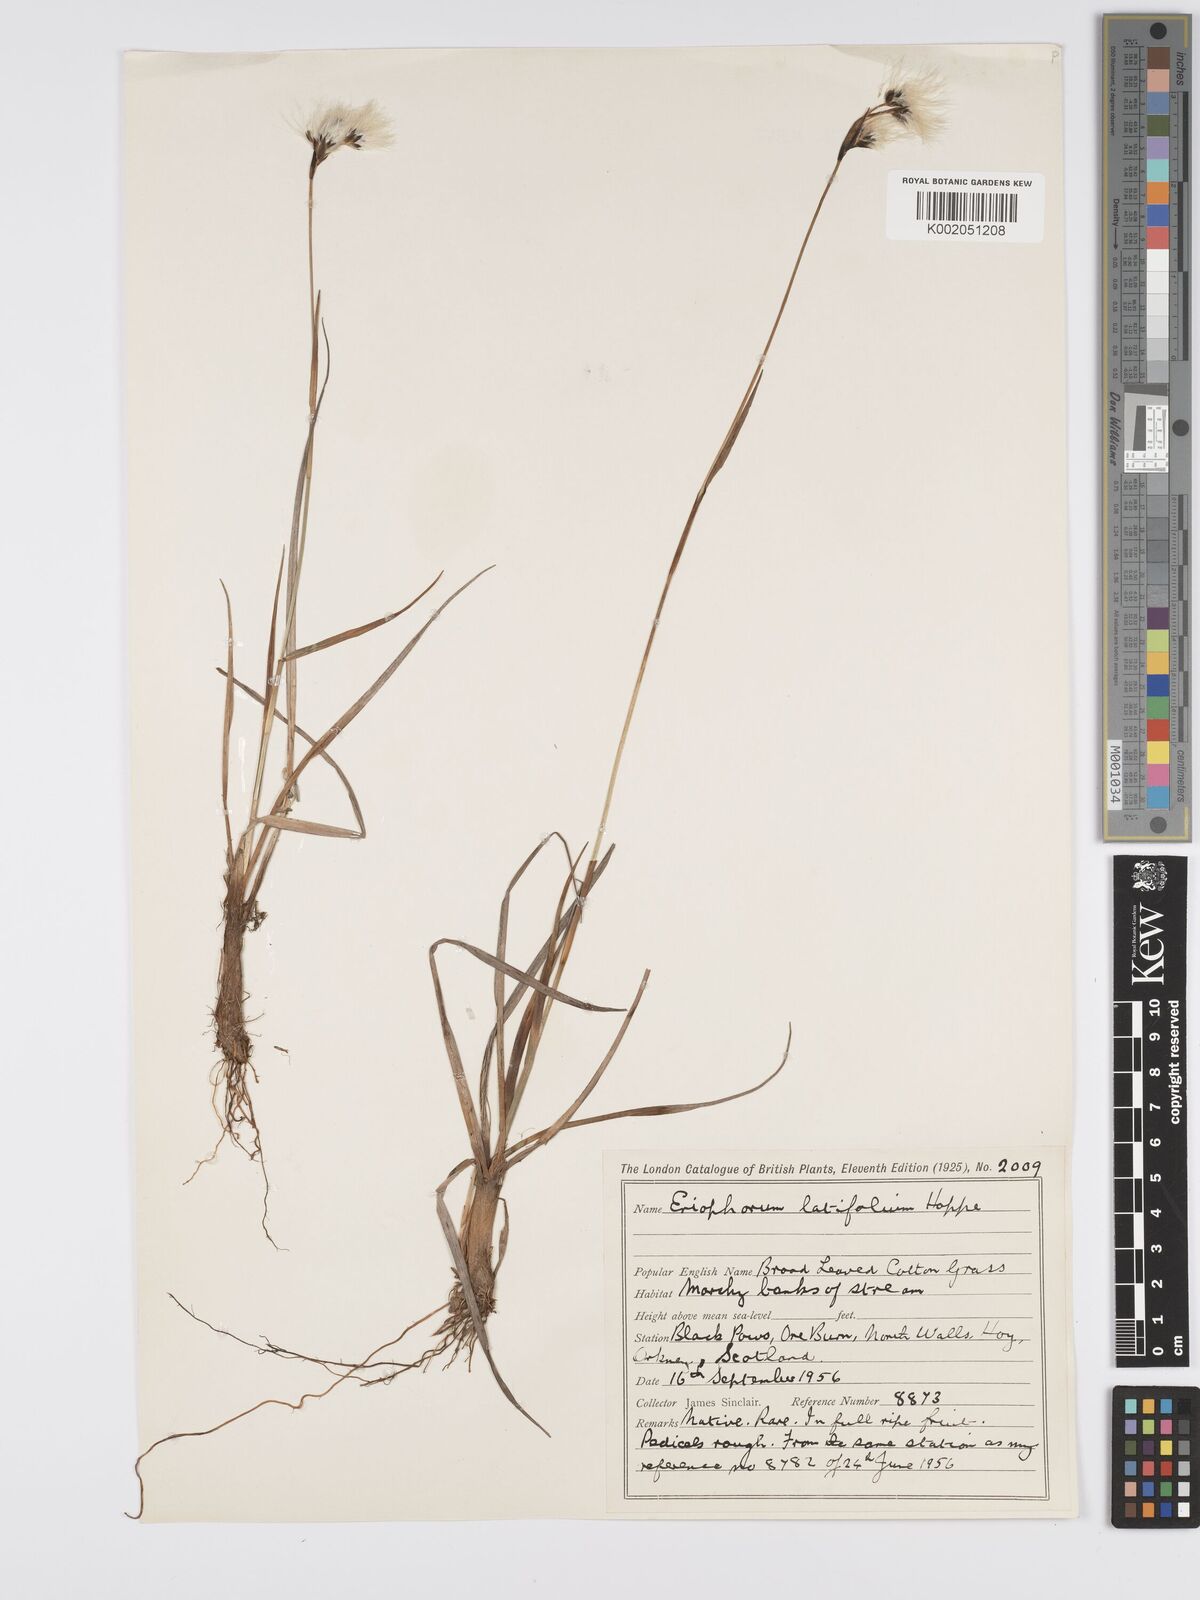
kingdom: Plantae
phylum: Tracheophyta
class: Liliopsida
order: Poales
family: Cyperaceae
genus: Eriophorum
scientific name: Eriophorum latifolium
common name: Broad-leaved cottongrass
